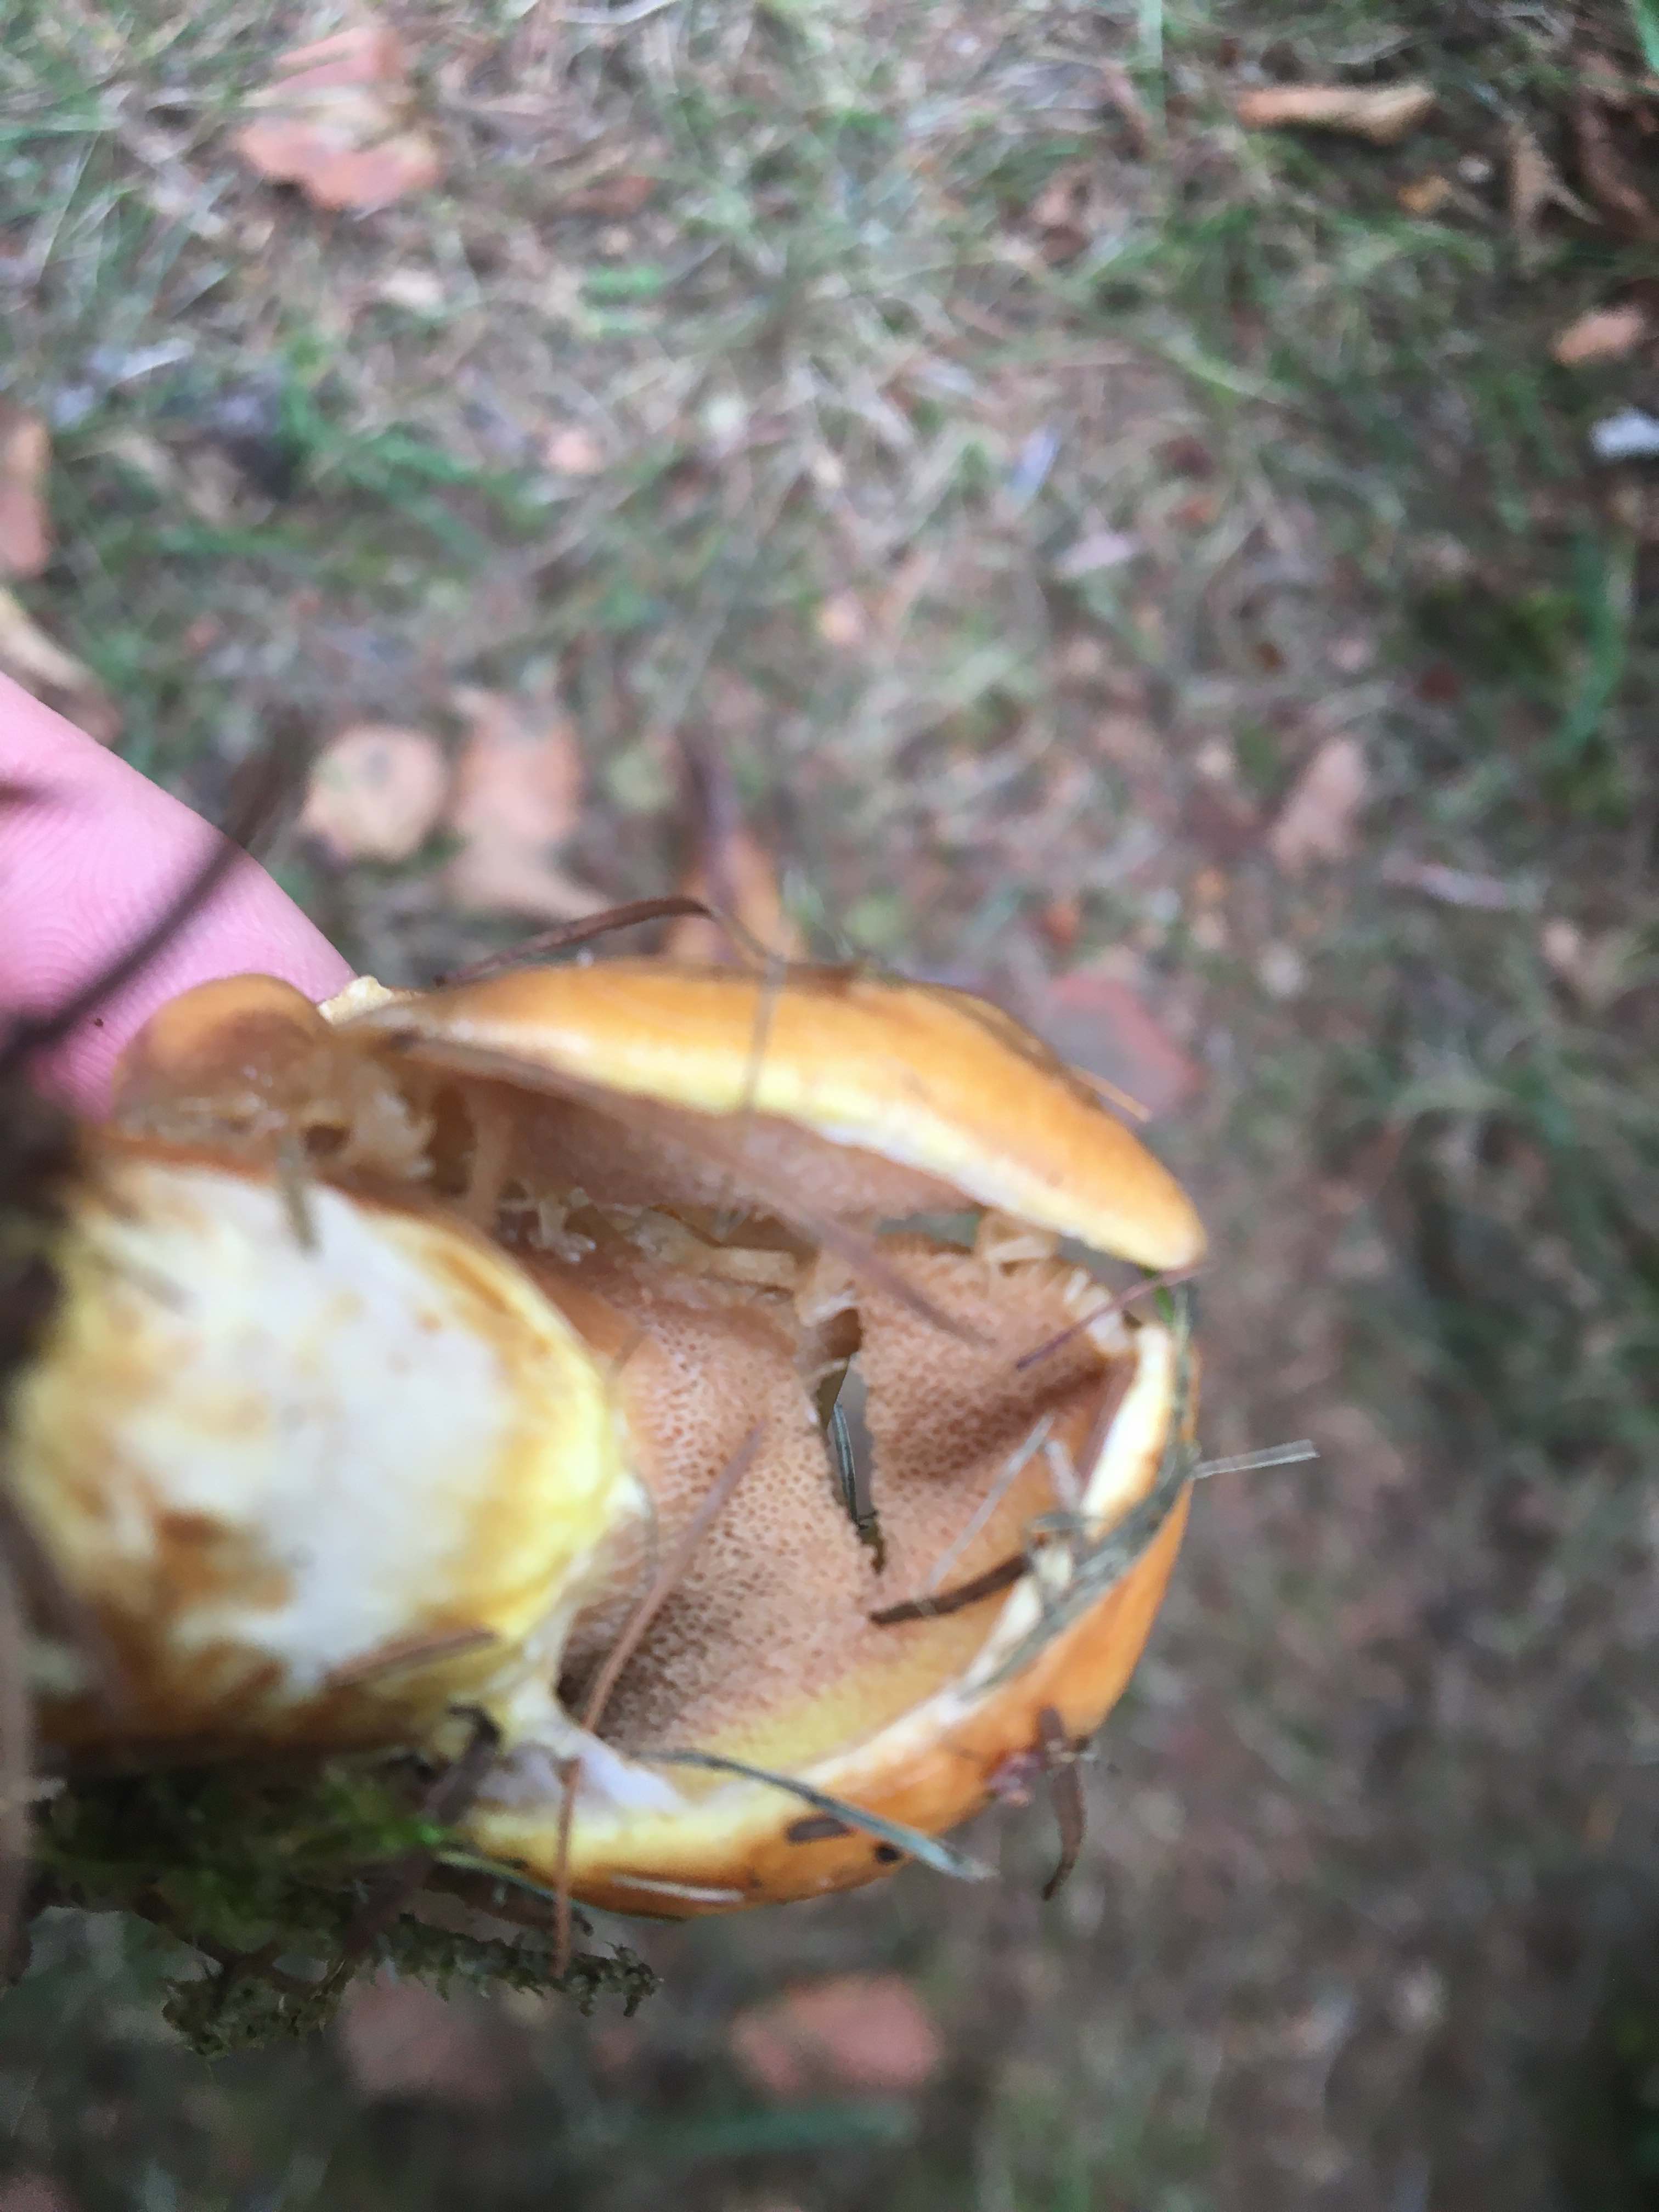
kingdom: Fungi
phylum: Basidiomycota
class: Agaricomycetes
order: Boletales
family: Suillaceae
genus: Suillus
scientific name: Suillus grevillei
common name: lærke-slimrørhat
